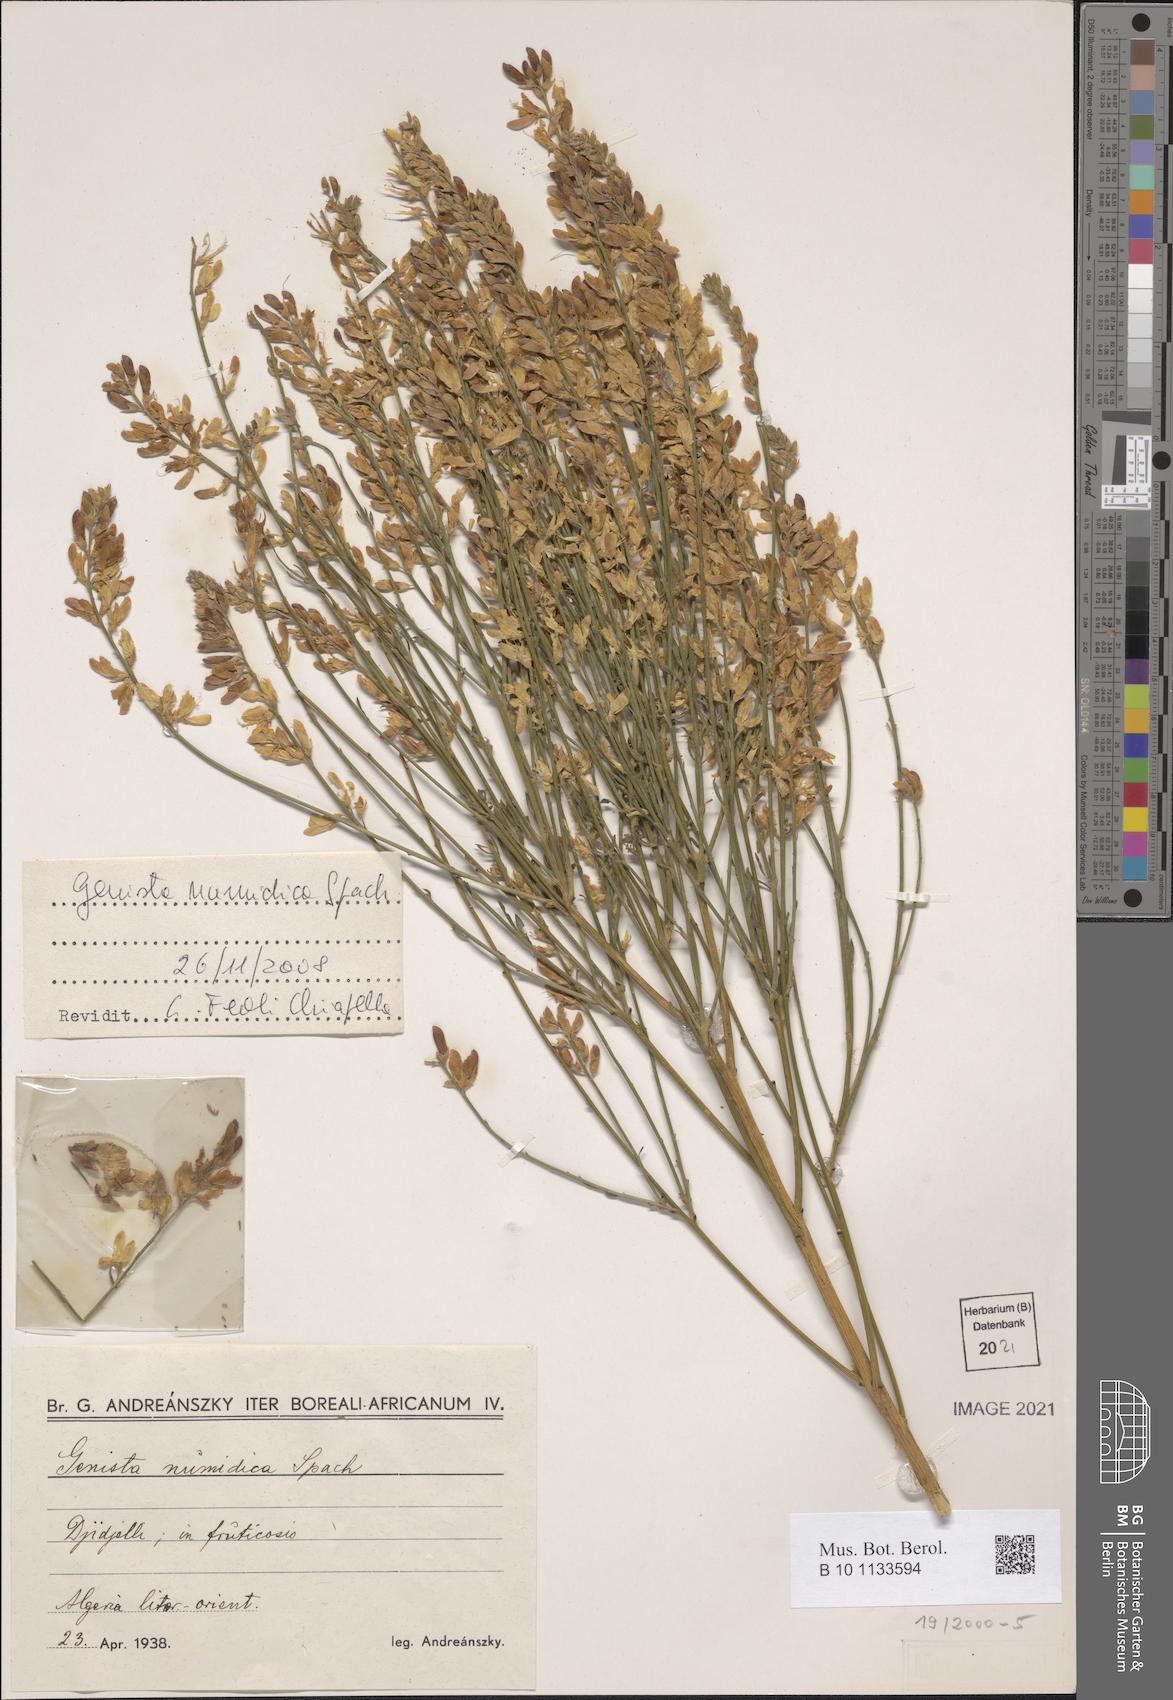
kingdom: Plantae
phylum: Tracheophyta
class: Magnoliopsida
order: Fabales
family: Fabaceae
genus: Genista
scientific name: Genista numidica
